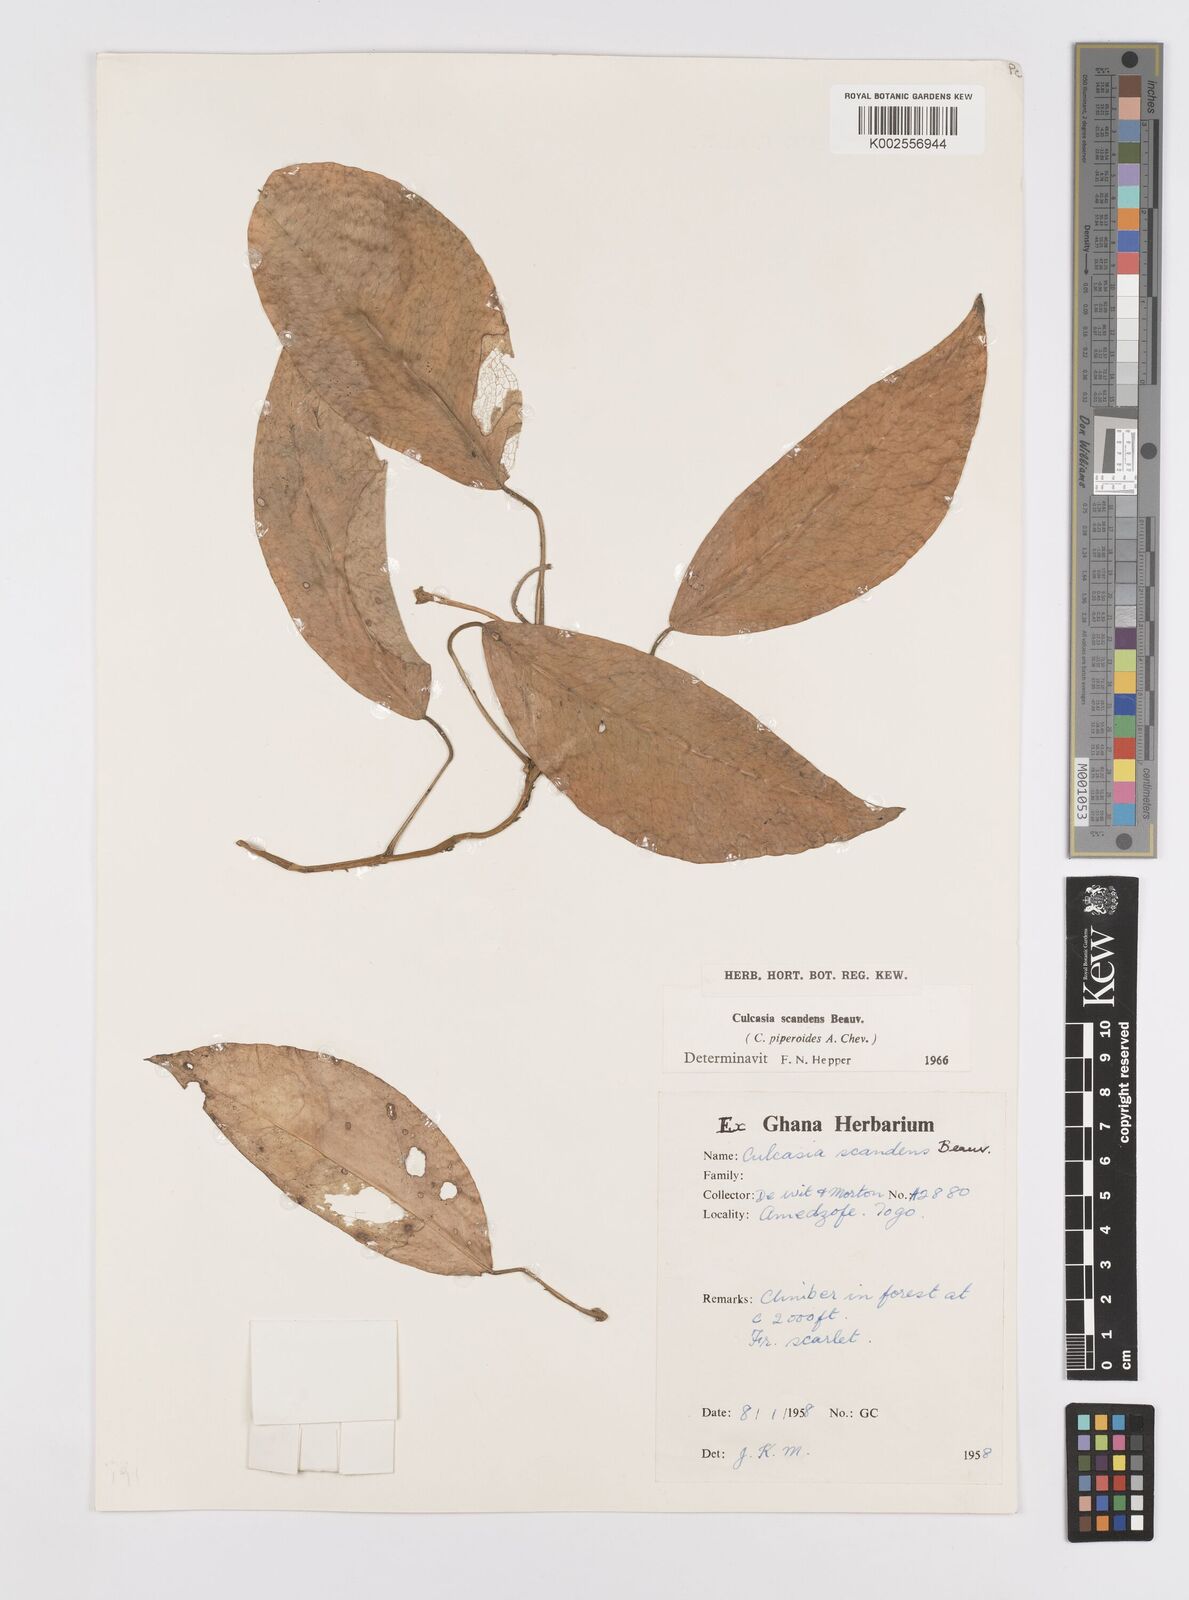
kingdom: Plantae
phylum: Tracheophyta
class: Liliopsida
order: Alismatales
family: Araceae
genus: Culcasia
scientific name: Culcasia scandens
